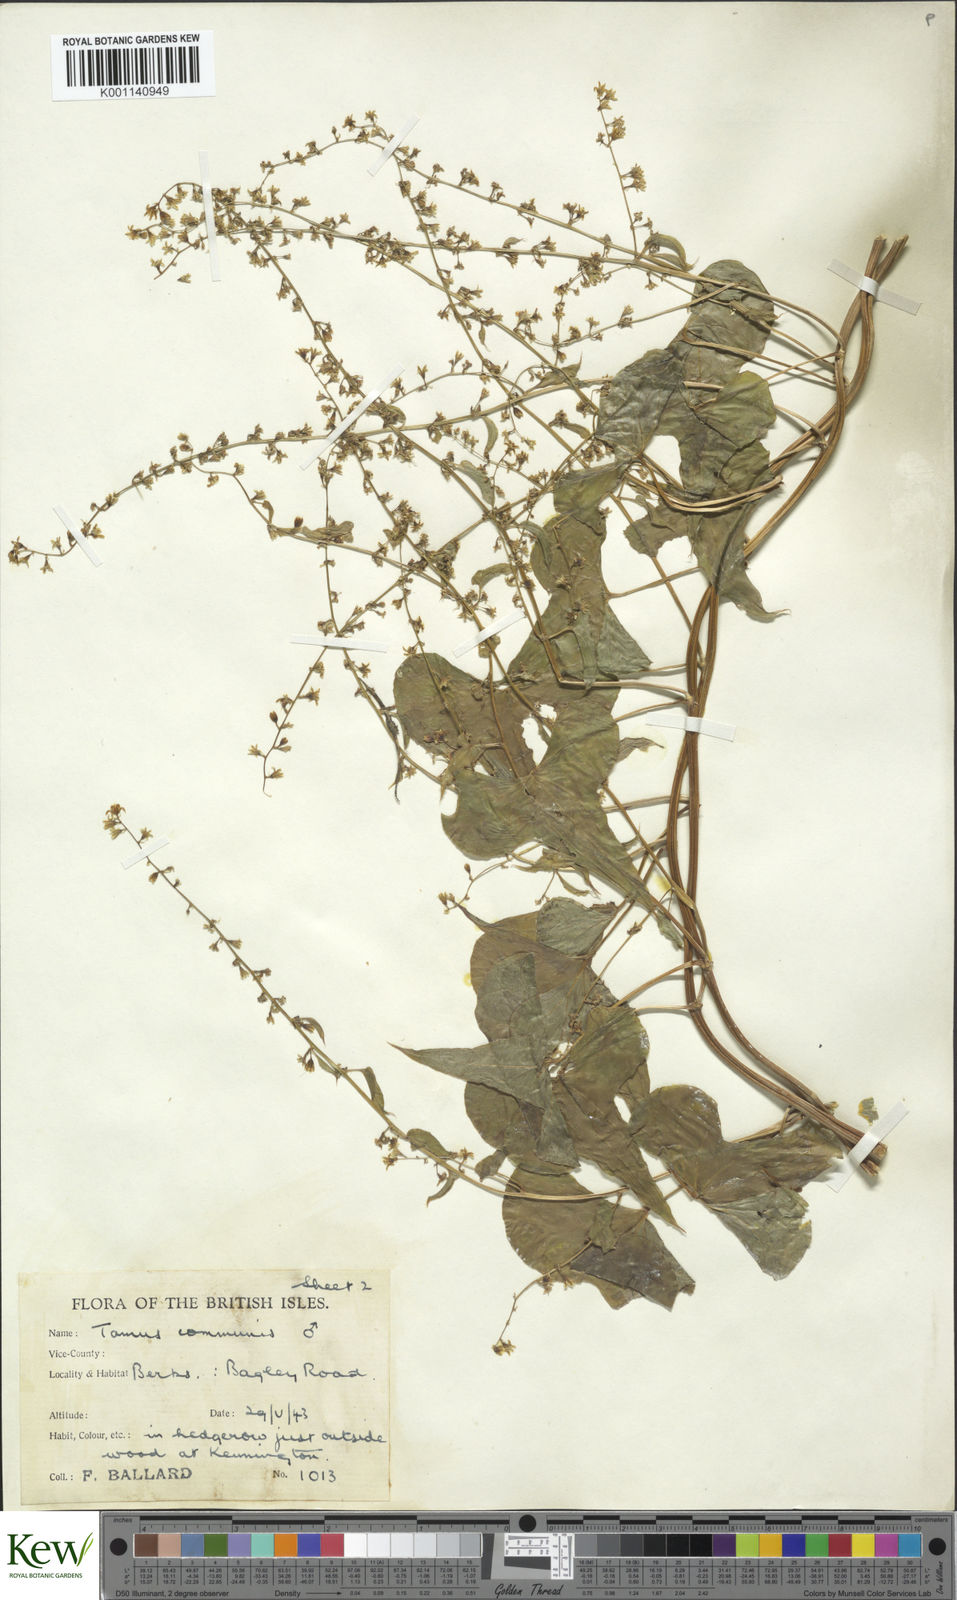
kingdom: Plantae
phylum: Tracheophyta
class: Liliopsida
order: Dioscoreales
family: Dioscoreaceae
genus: Dioscorea
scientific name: Dioscorea communis
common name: Black-bindweed
